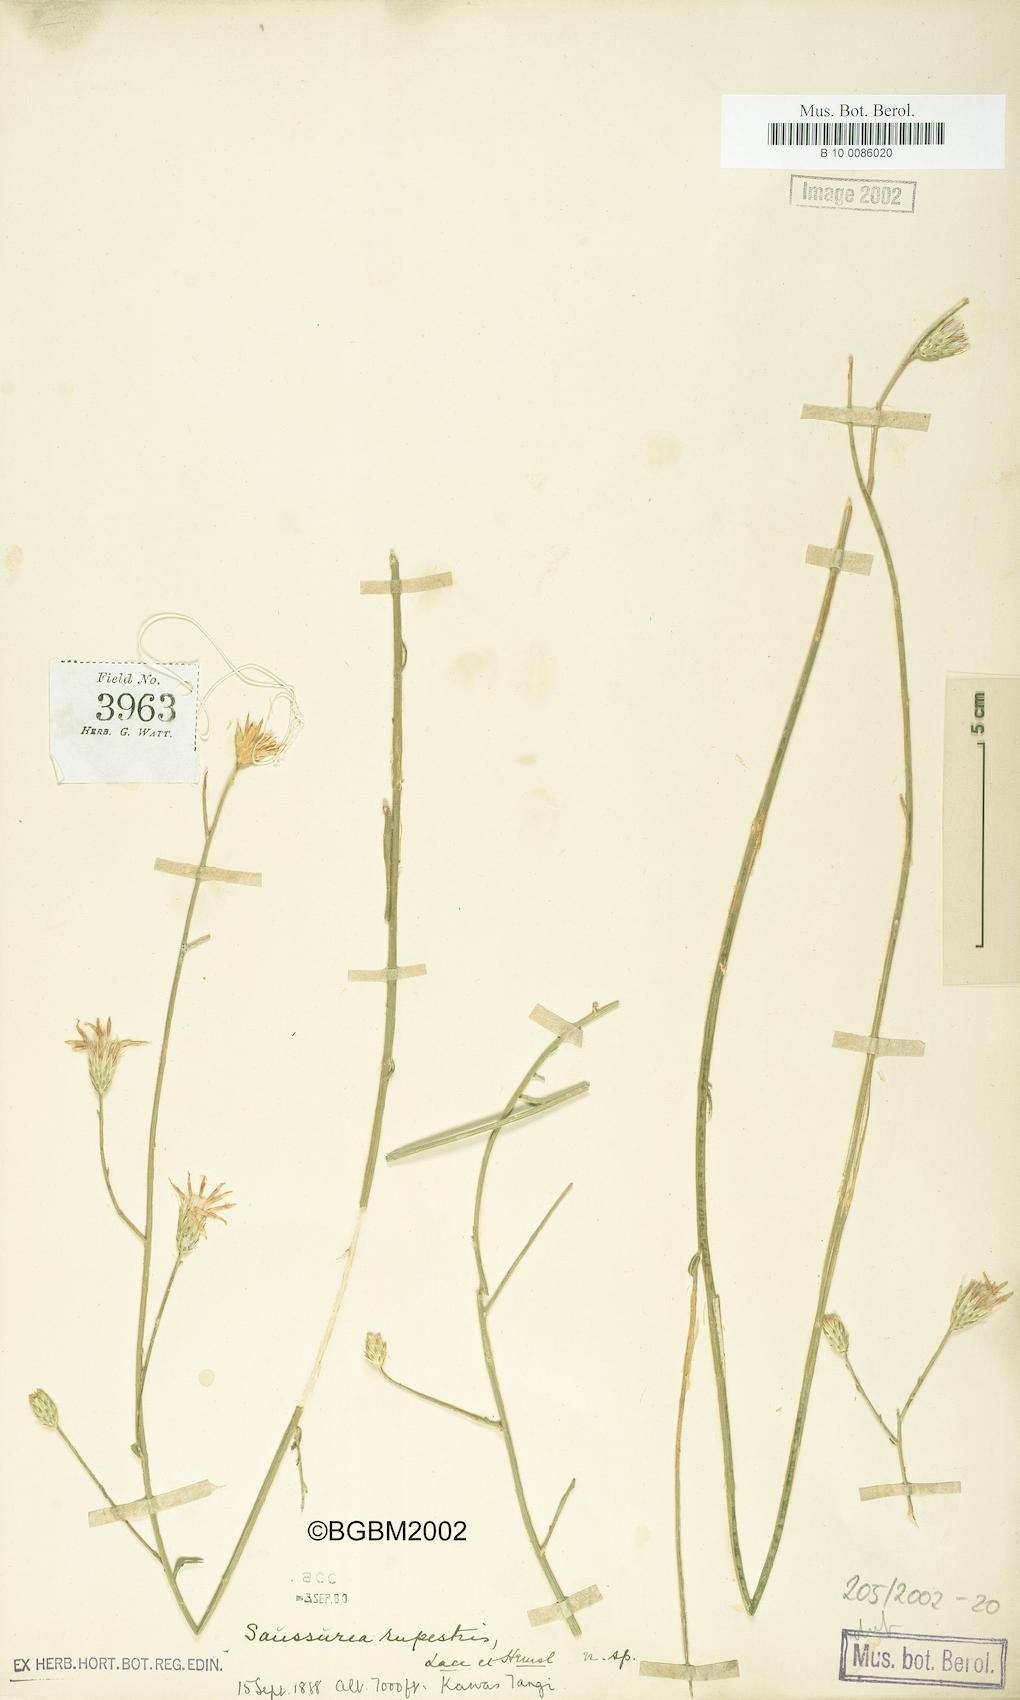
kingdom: Plantae
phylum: Tracheophyta
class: Magnoliopsida
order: Asterales
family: Asteraceae
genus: Saussurea
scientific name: Saussurea chondrilloides
